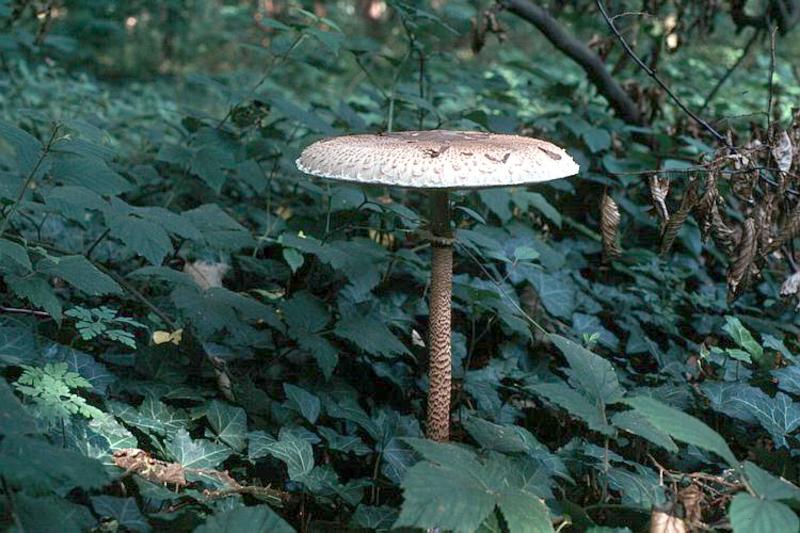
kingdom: Fungi
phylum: Basidiomycota
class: Agaricomycetes
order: Agaricales
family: Agaricaceae
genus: Macrolepiota
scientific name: Macrolepiota procera
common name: Parasol
